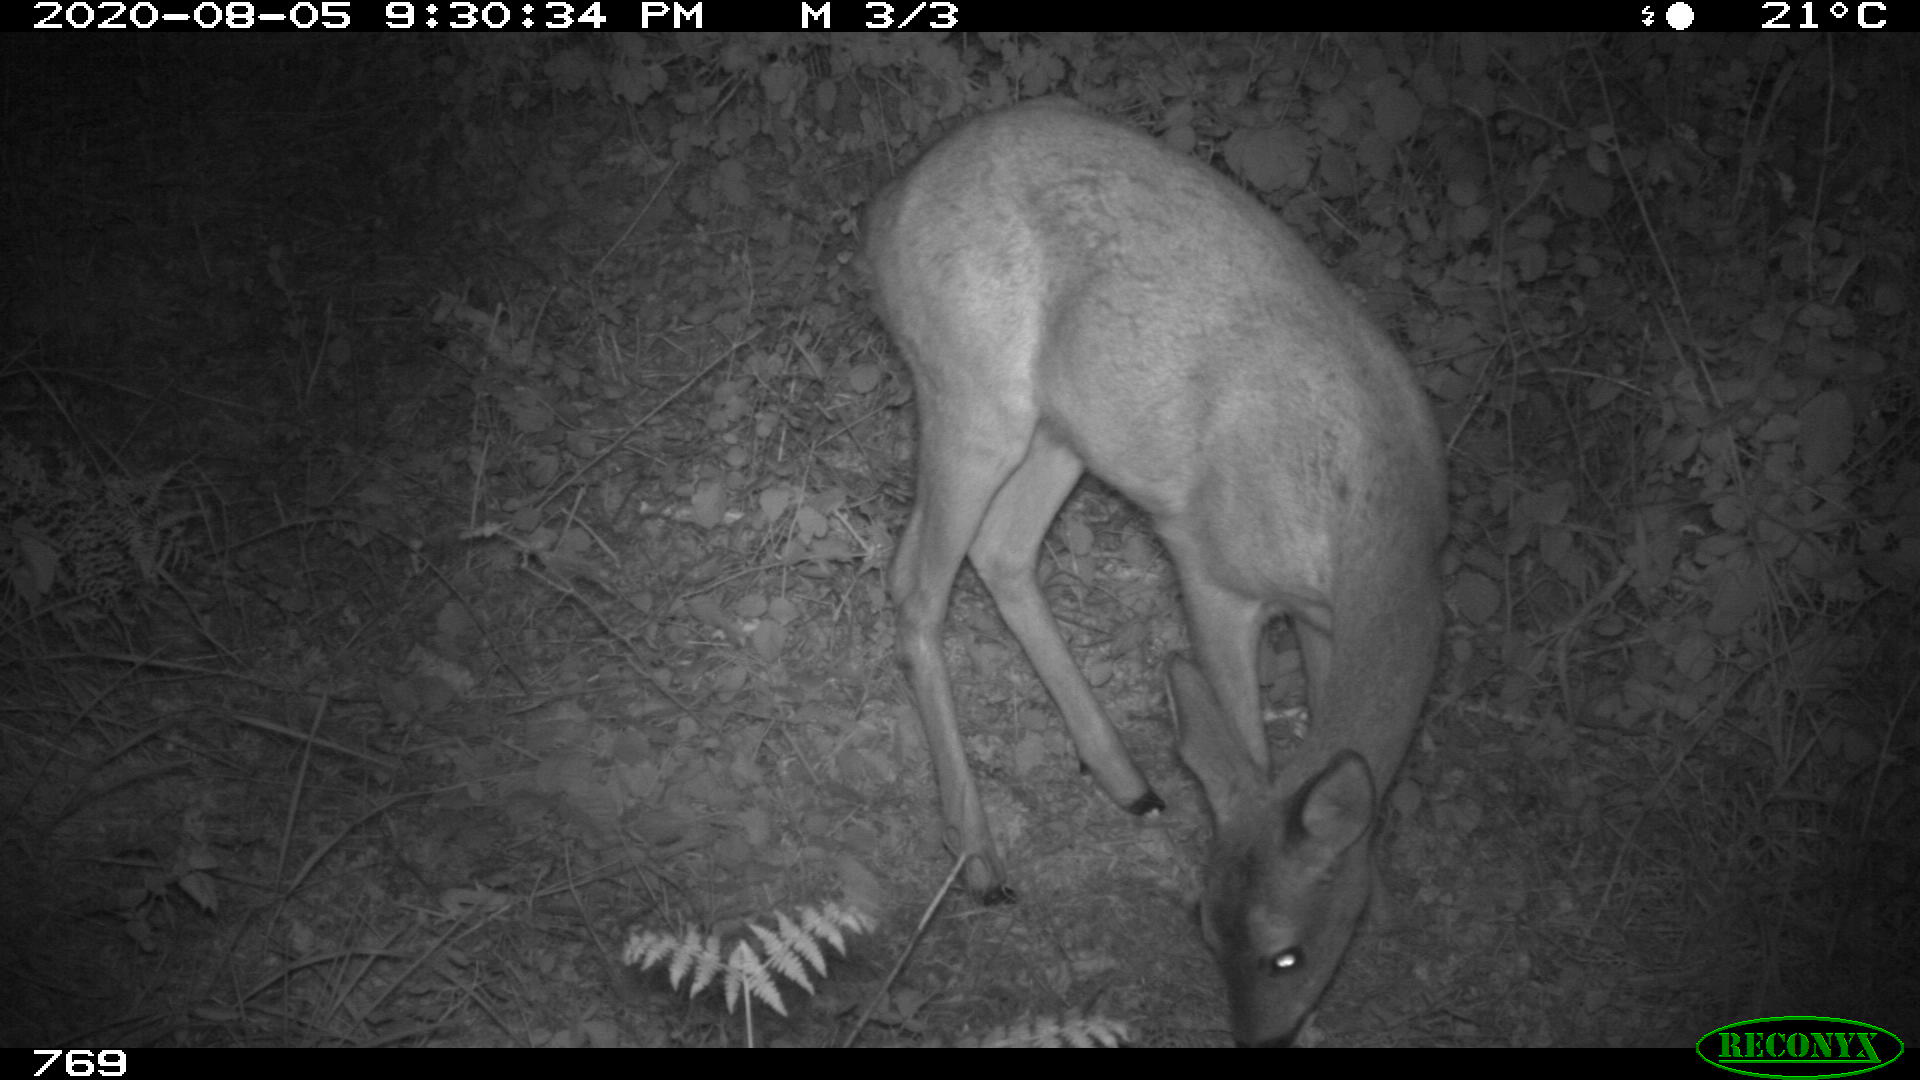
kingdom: Animalia
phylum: Chordata
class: Mammalia
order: Artiodactyla
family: Cervidae
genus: Capreolus
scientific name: Capreolus capreolus
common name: Western roe deer
